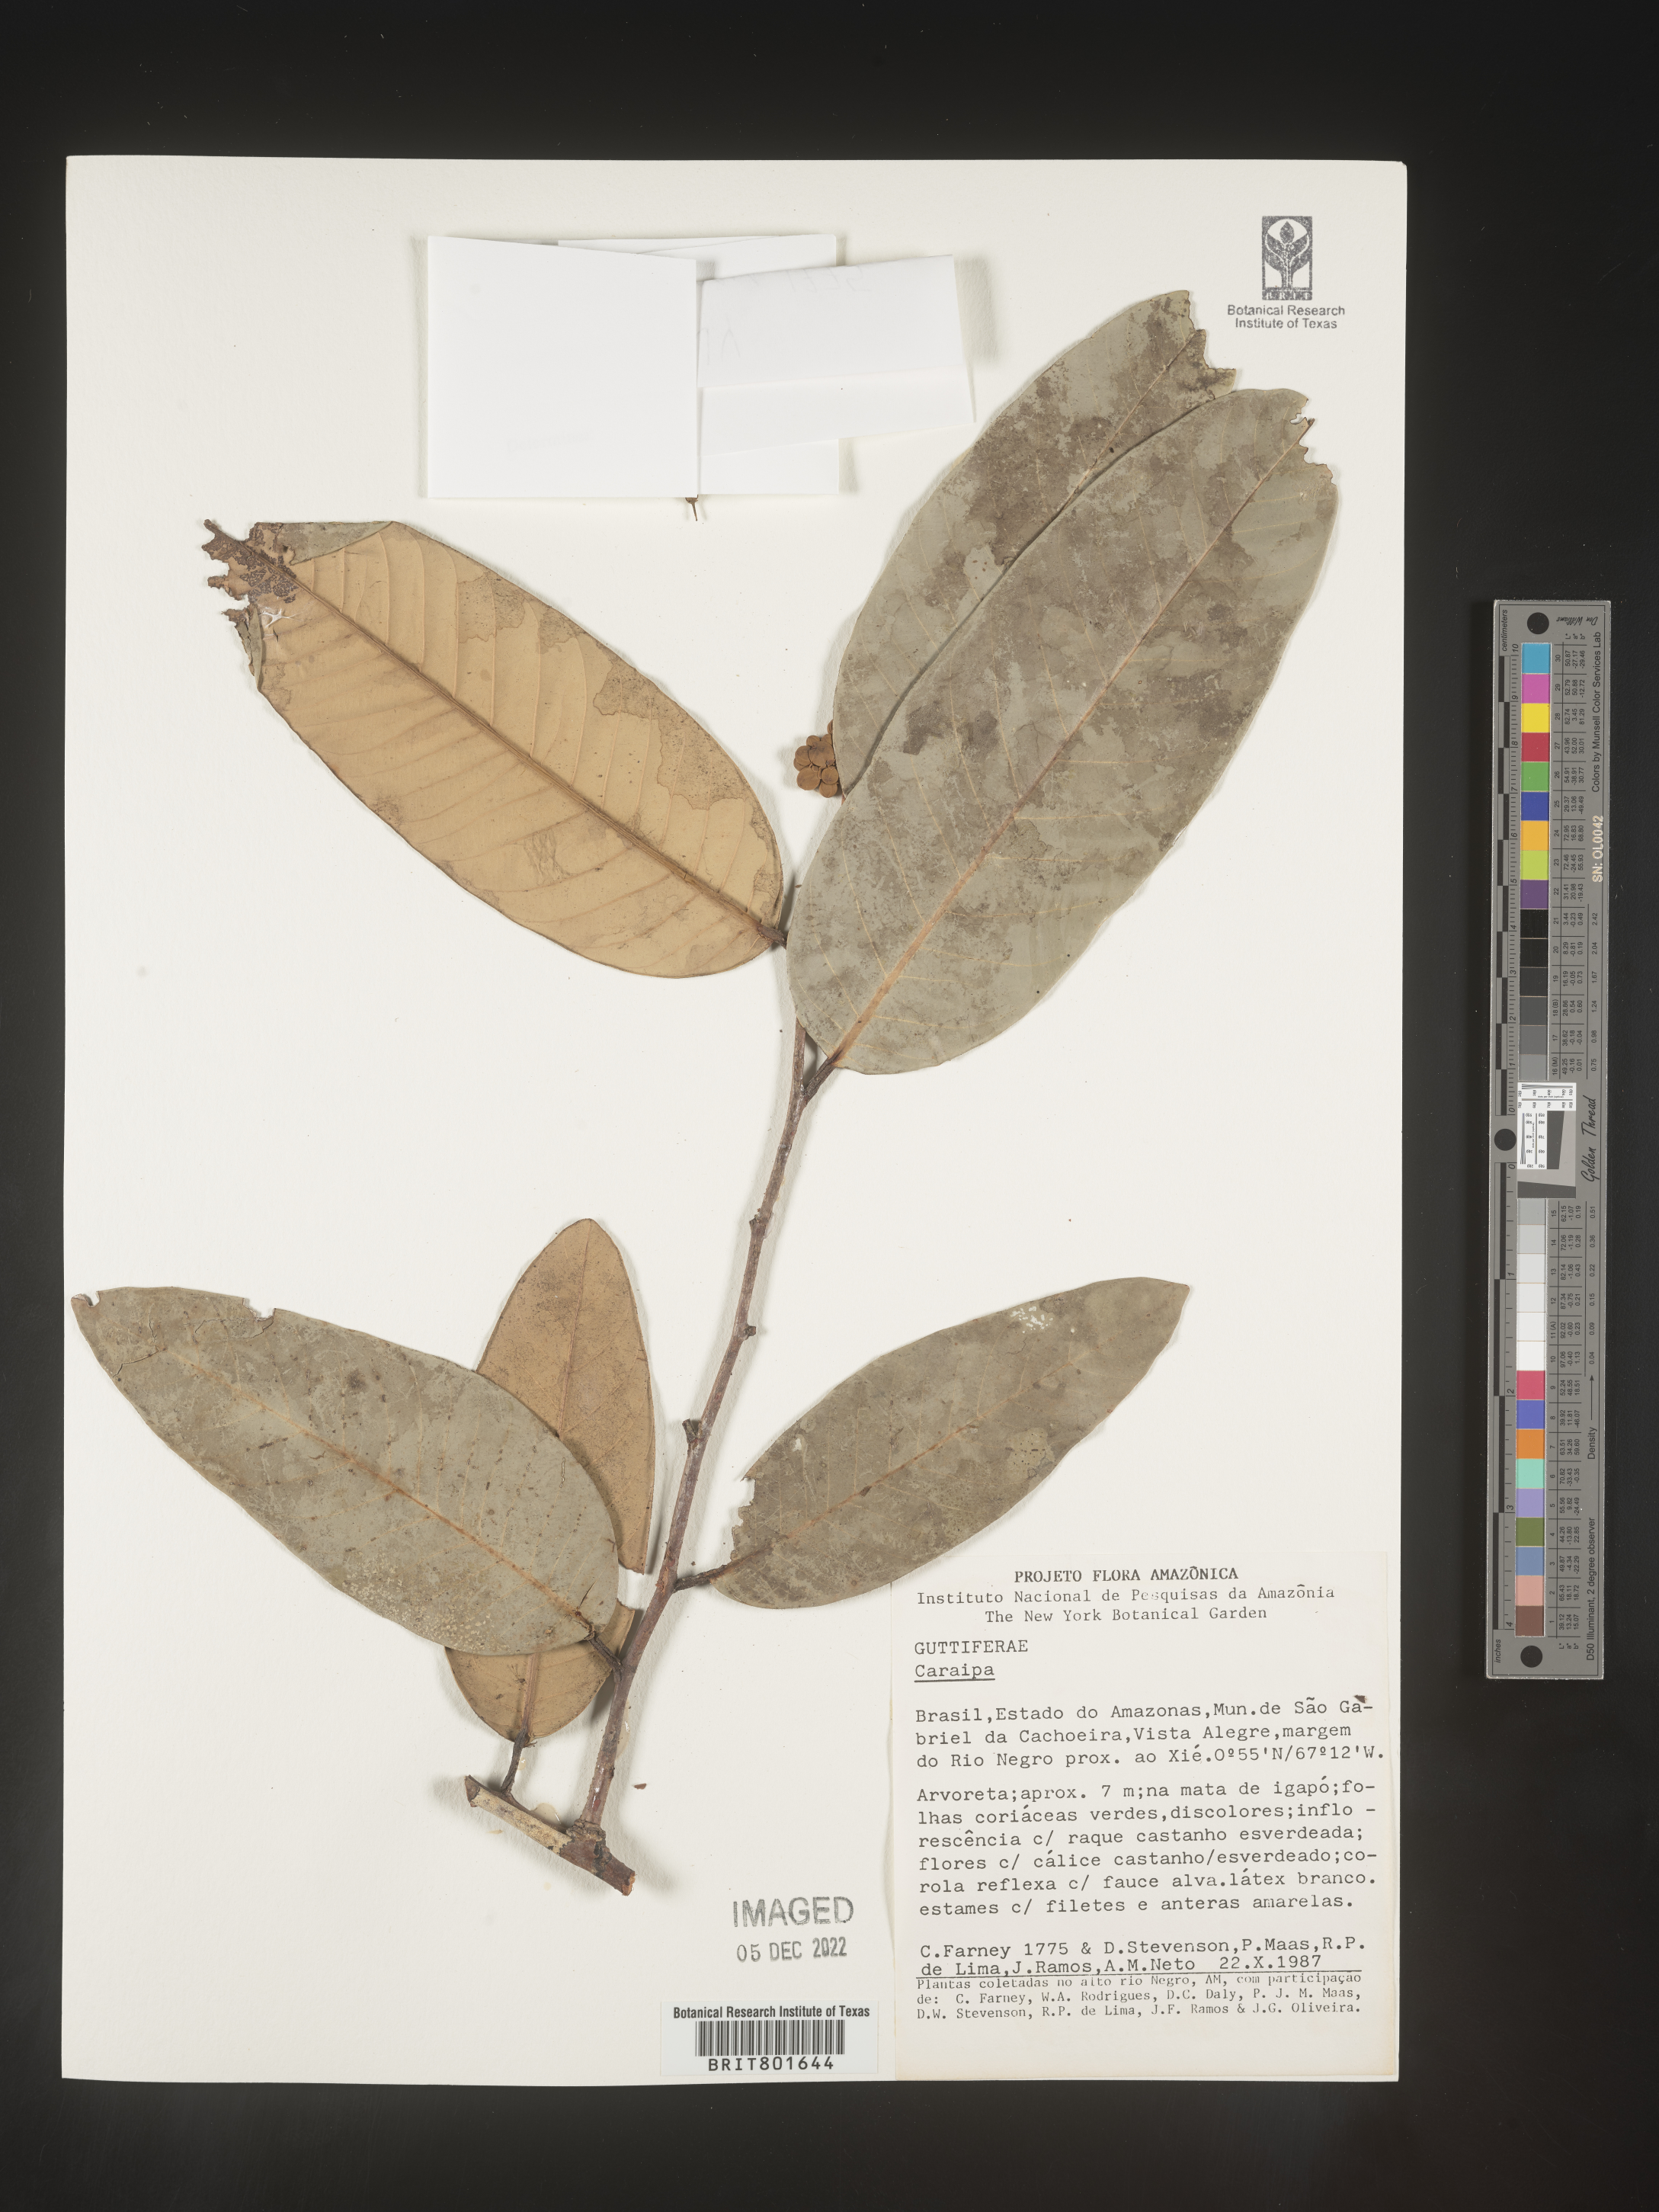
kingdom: Plantae
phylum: Tracheophyta
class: Magnoliopsida
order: Malpighiales
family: Calophyllaceae
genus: Caraipa
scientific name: Caraipa
